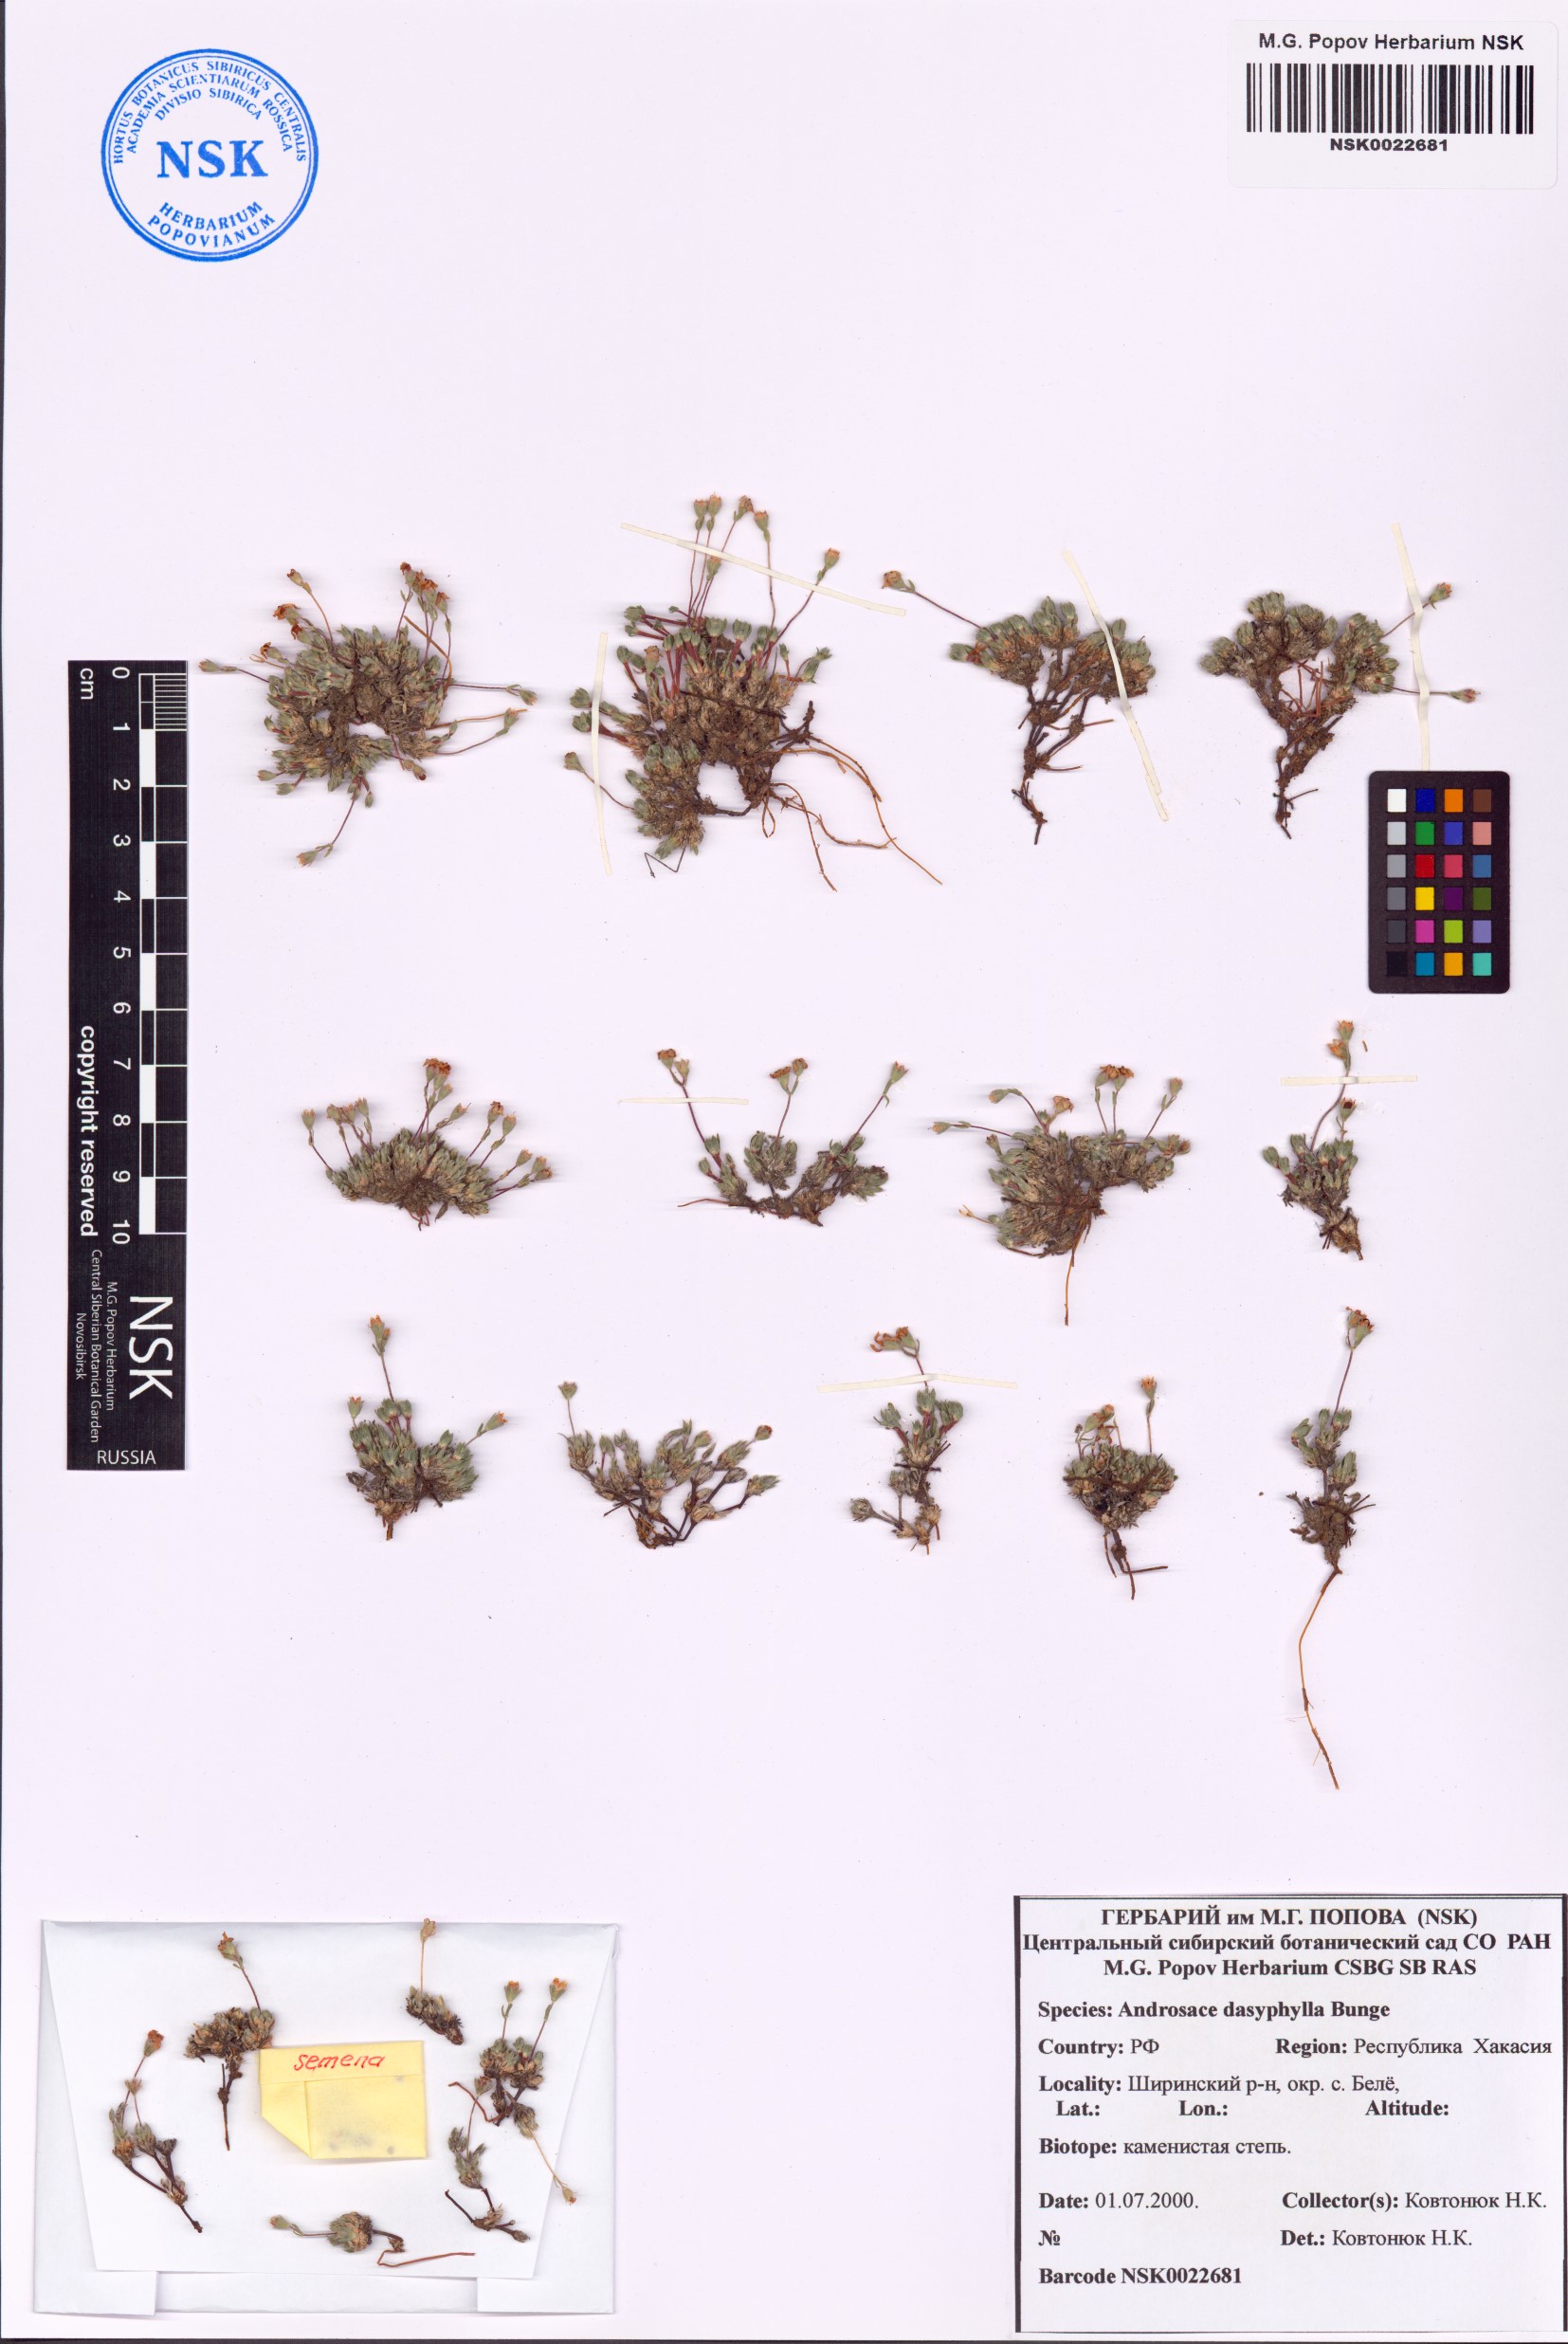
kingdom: Plantae
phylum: Tracheophyta
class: Magnoliopsida
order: Ericales
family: Primulaceae
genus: Androsace
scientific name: Androsace dasyphylla
